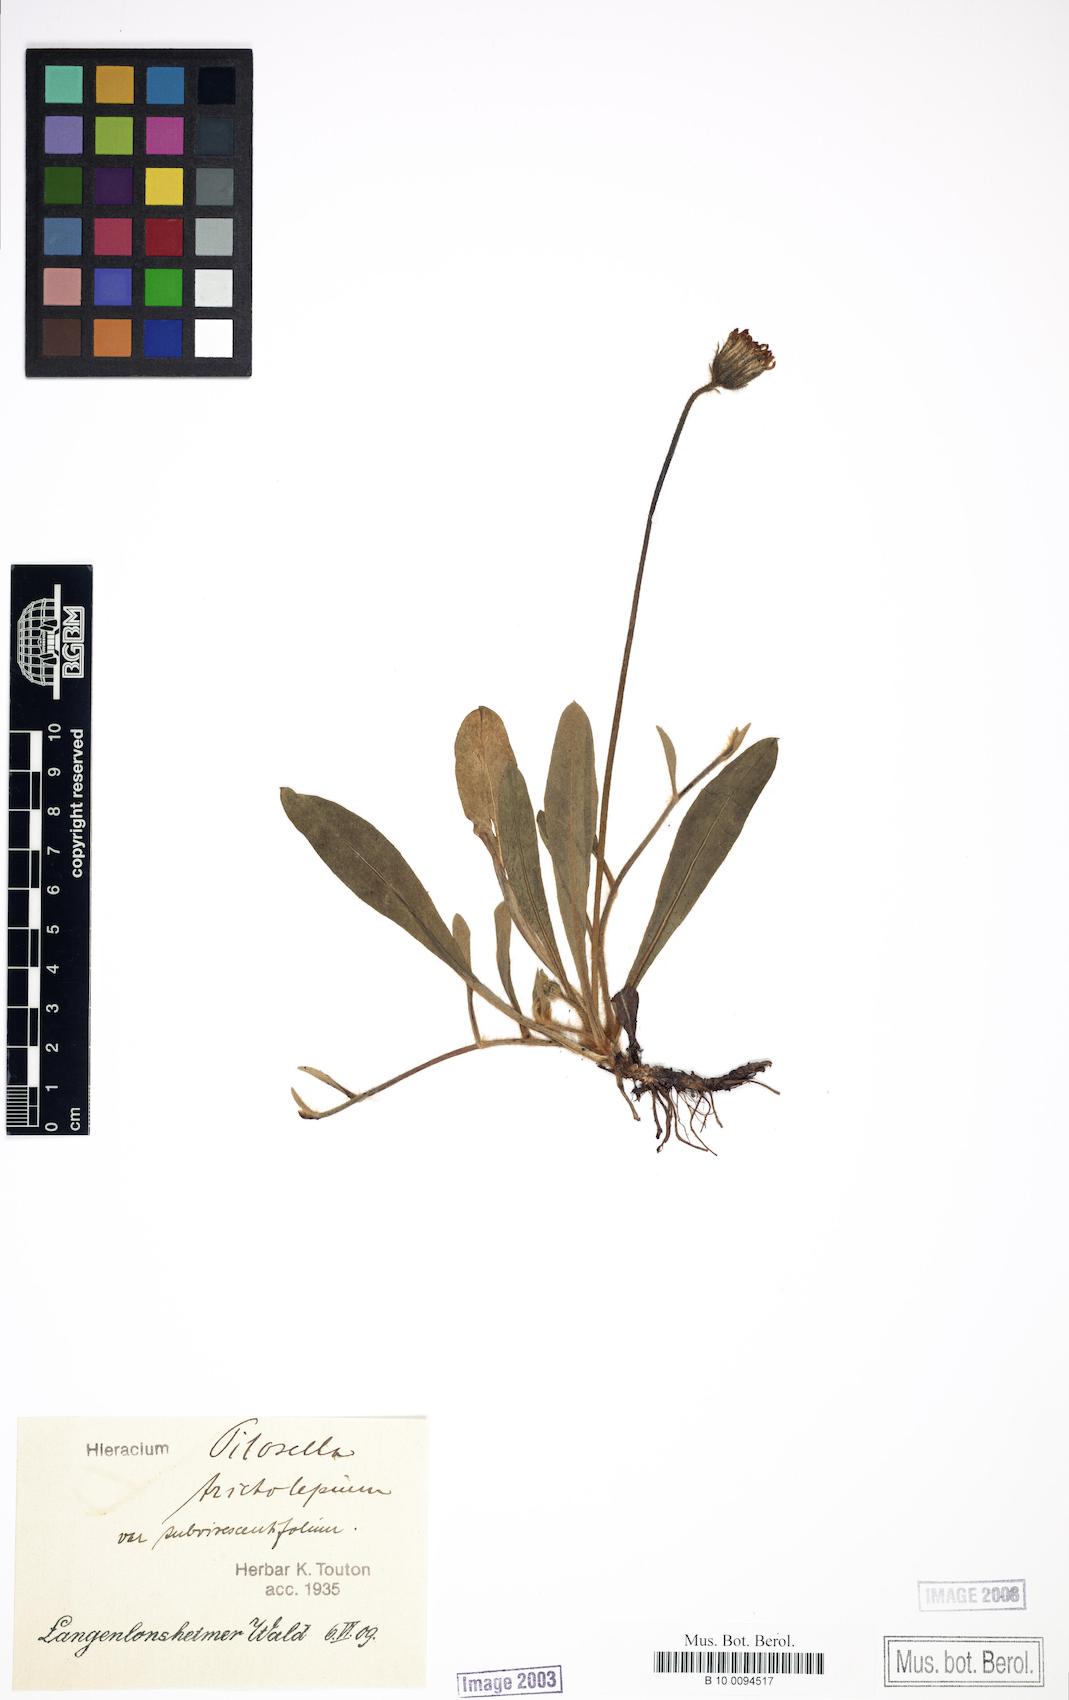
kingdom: Plantae
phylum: Tracheophyta
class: Magnoliopsida
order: Asterales
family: Asteraceae
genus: Pilosella
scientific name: Pilosella officinarum
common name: Mouse-ear hawkweed
